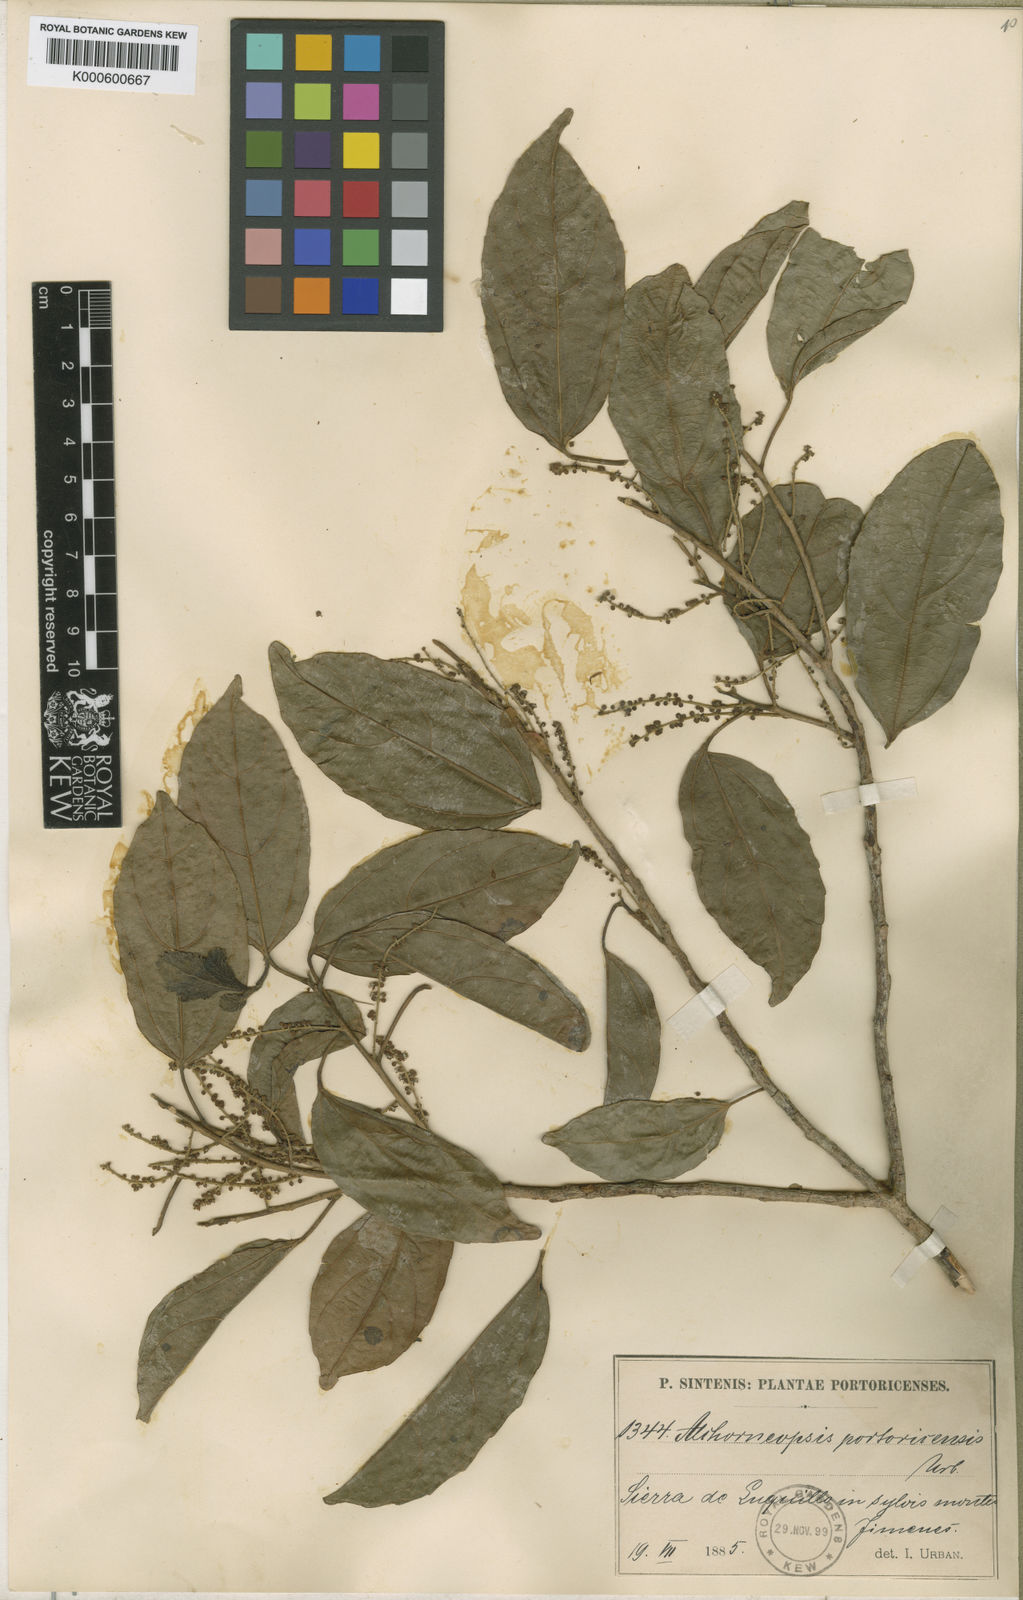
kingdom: Plantae
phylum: Tracheophyta
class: Magnoliopsida
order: Malpighiales
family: Euphorbiaceae
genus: Alchorneopsis
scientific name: Alchorneopsis portoricensis
